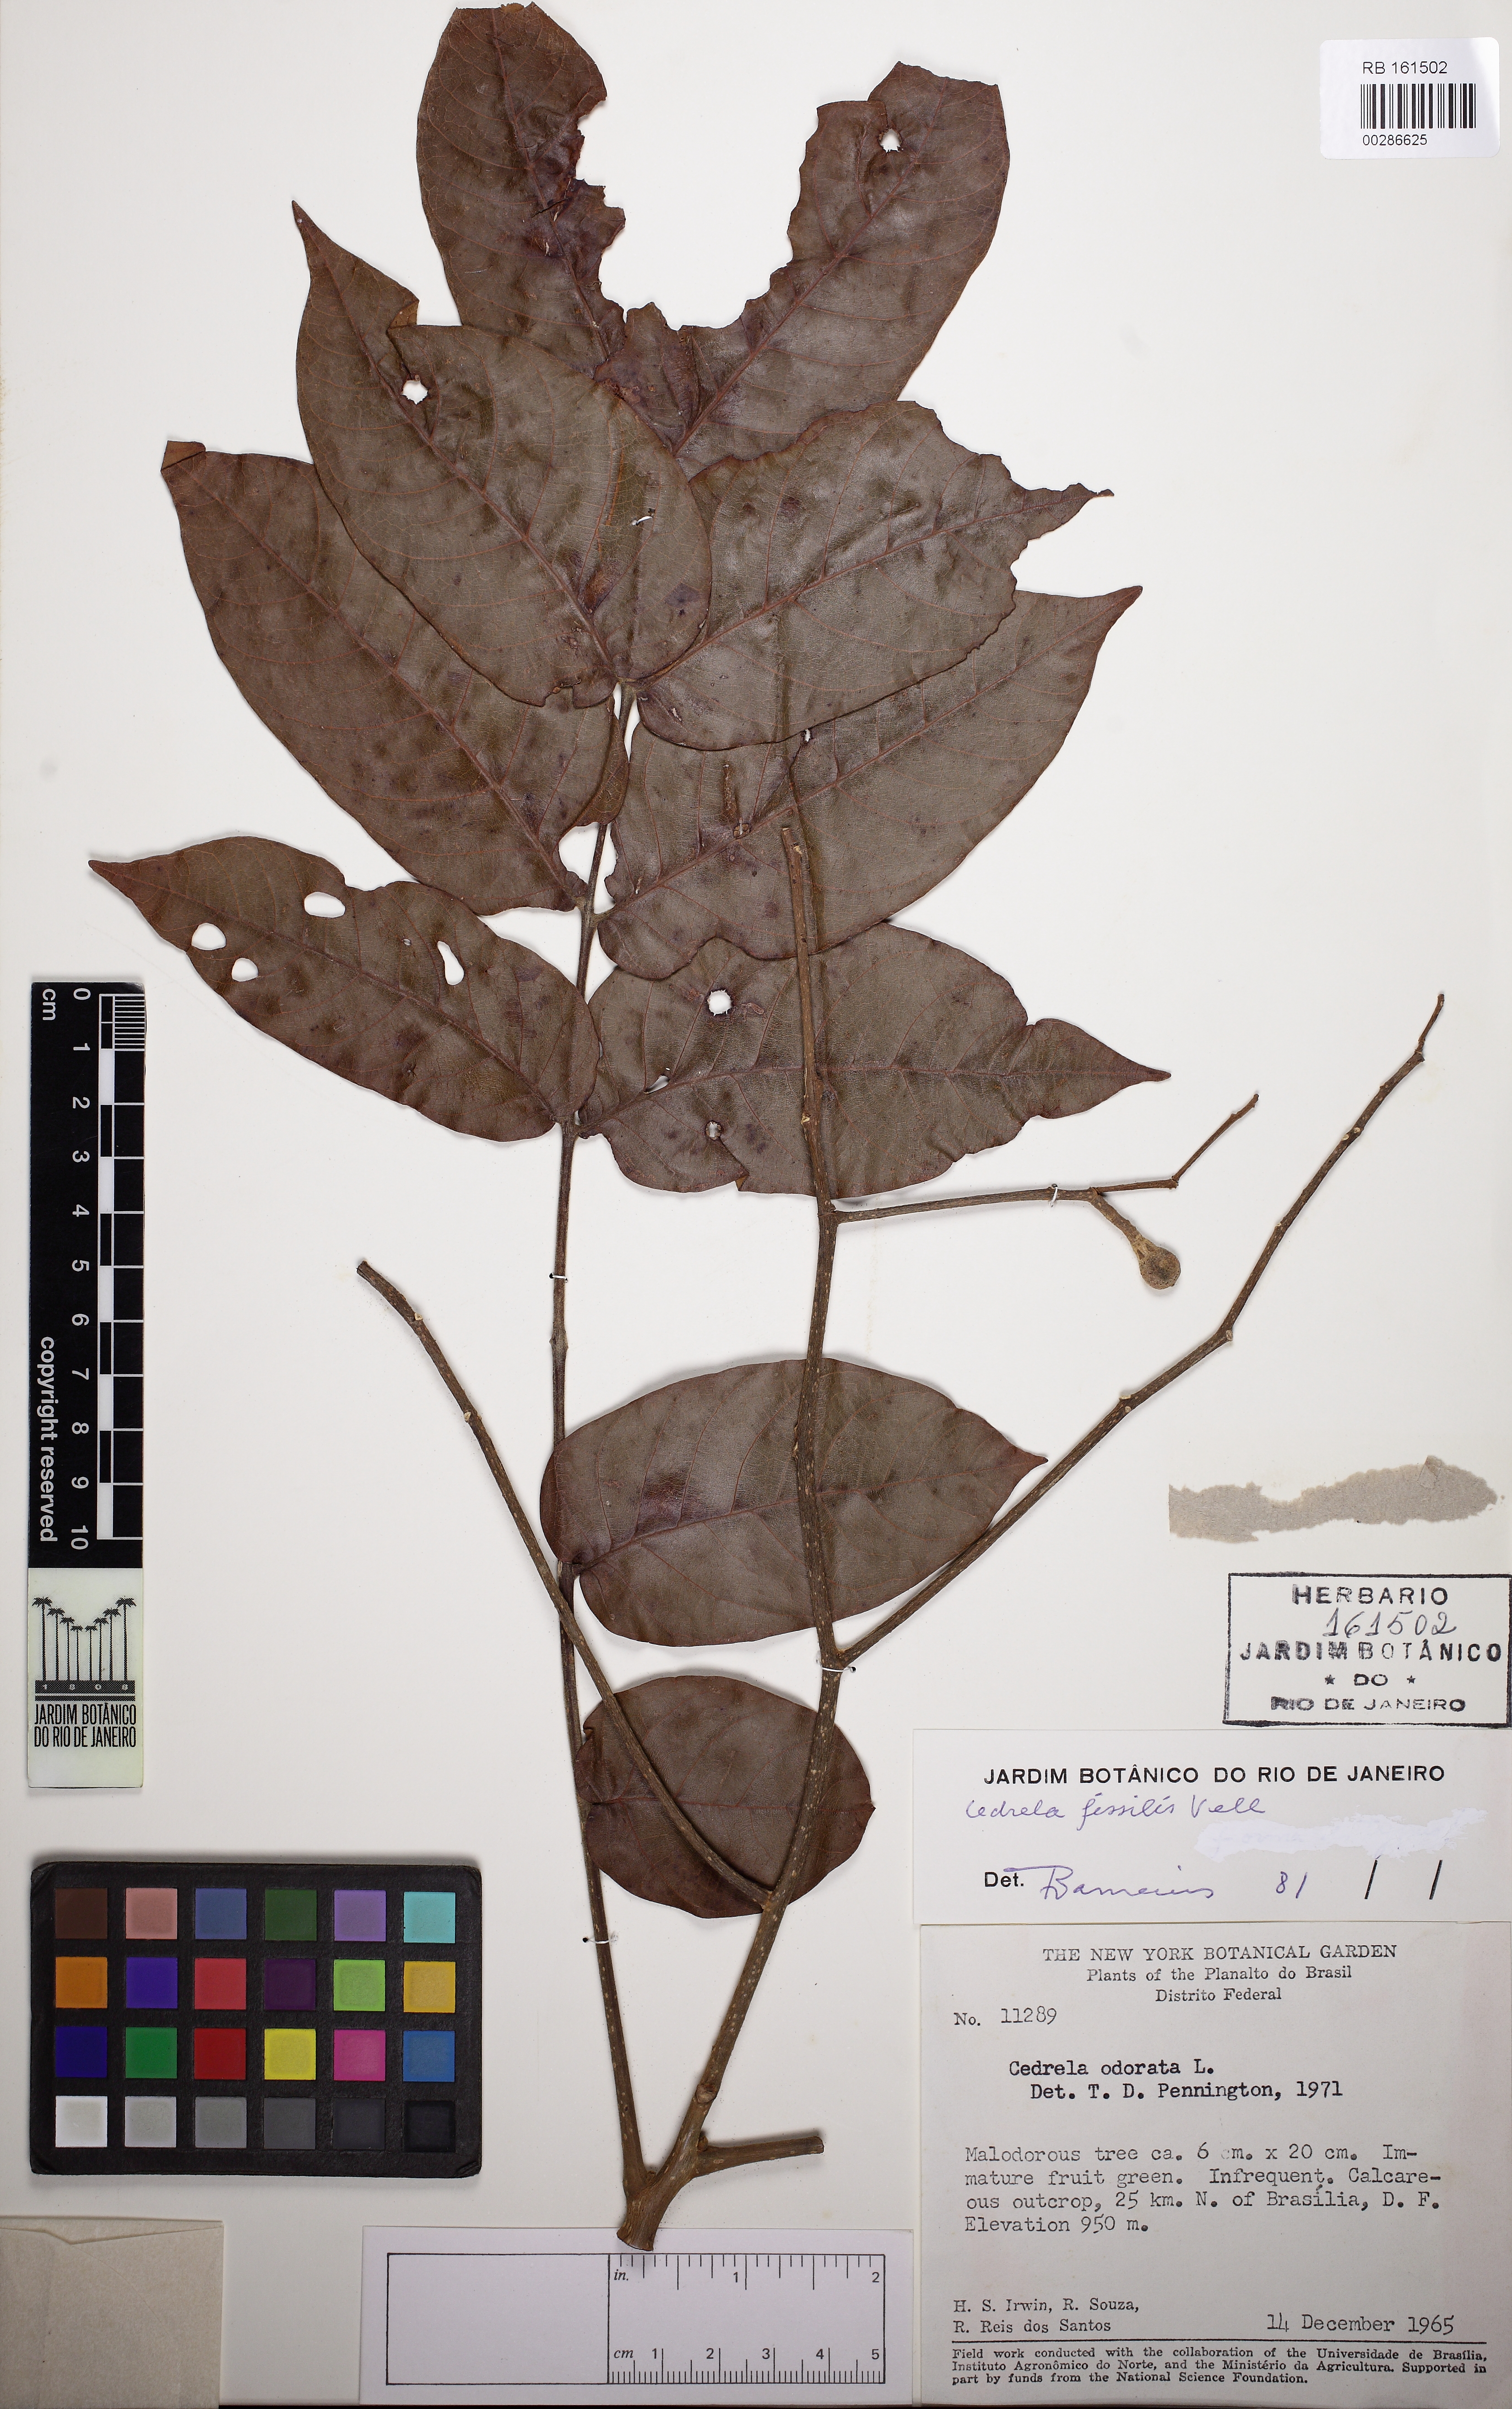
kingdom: Plantae
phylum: Tracheophyta
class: Magnoliopsida
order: Sapindales
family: Meliaceae
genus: Cedrela
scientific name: Cedrela fissilis
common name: Argentine cedar
